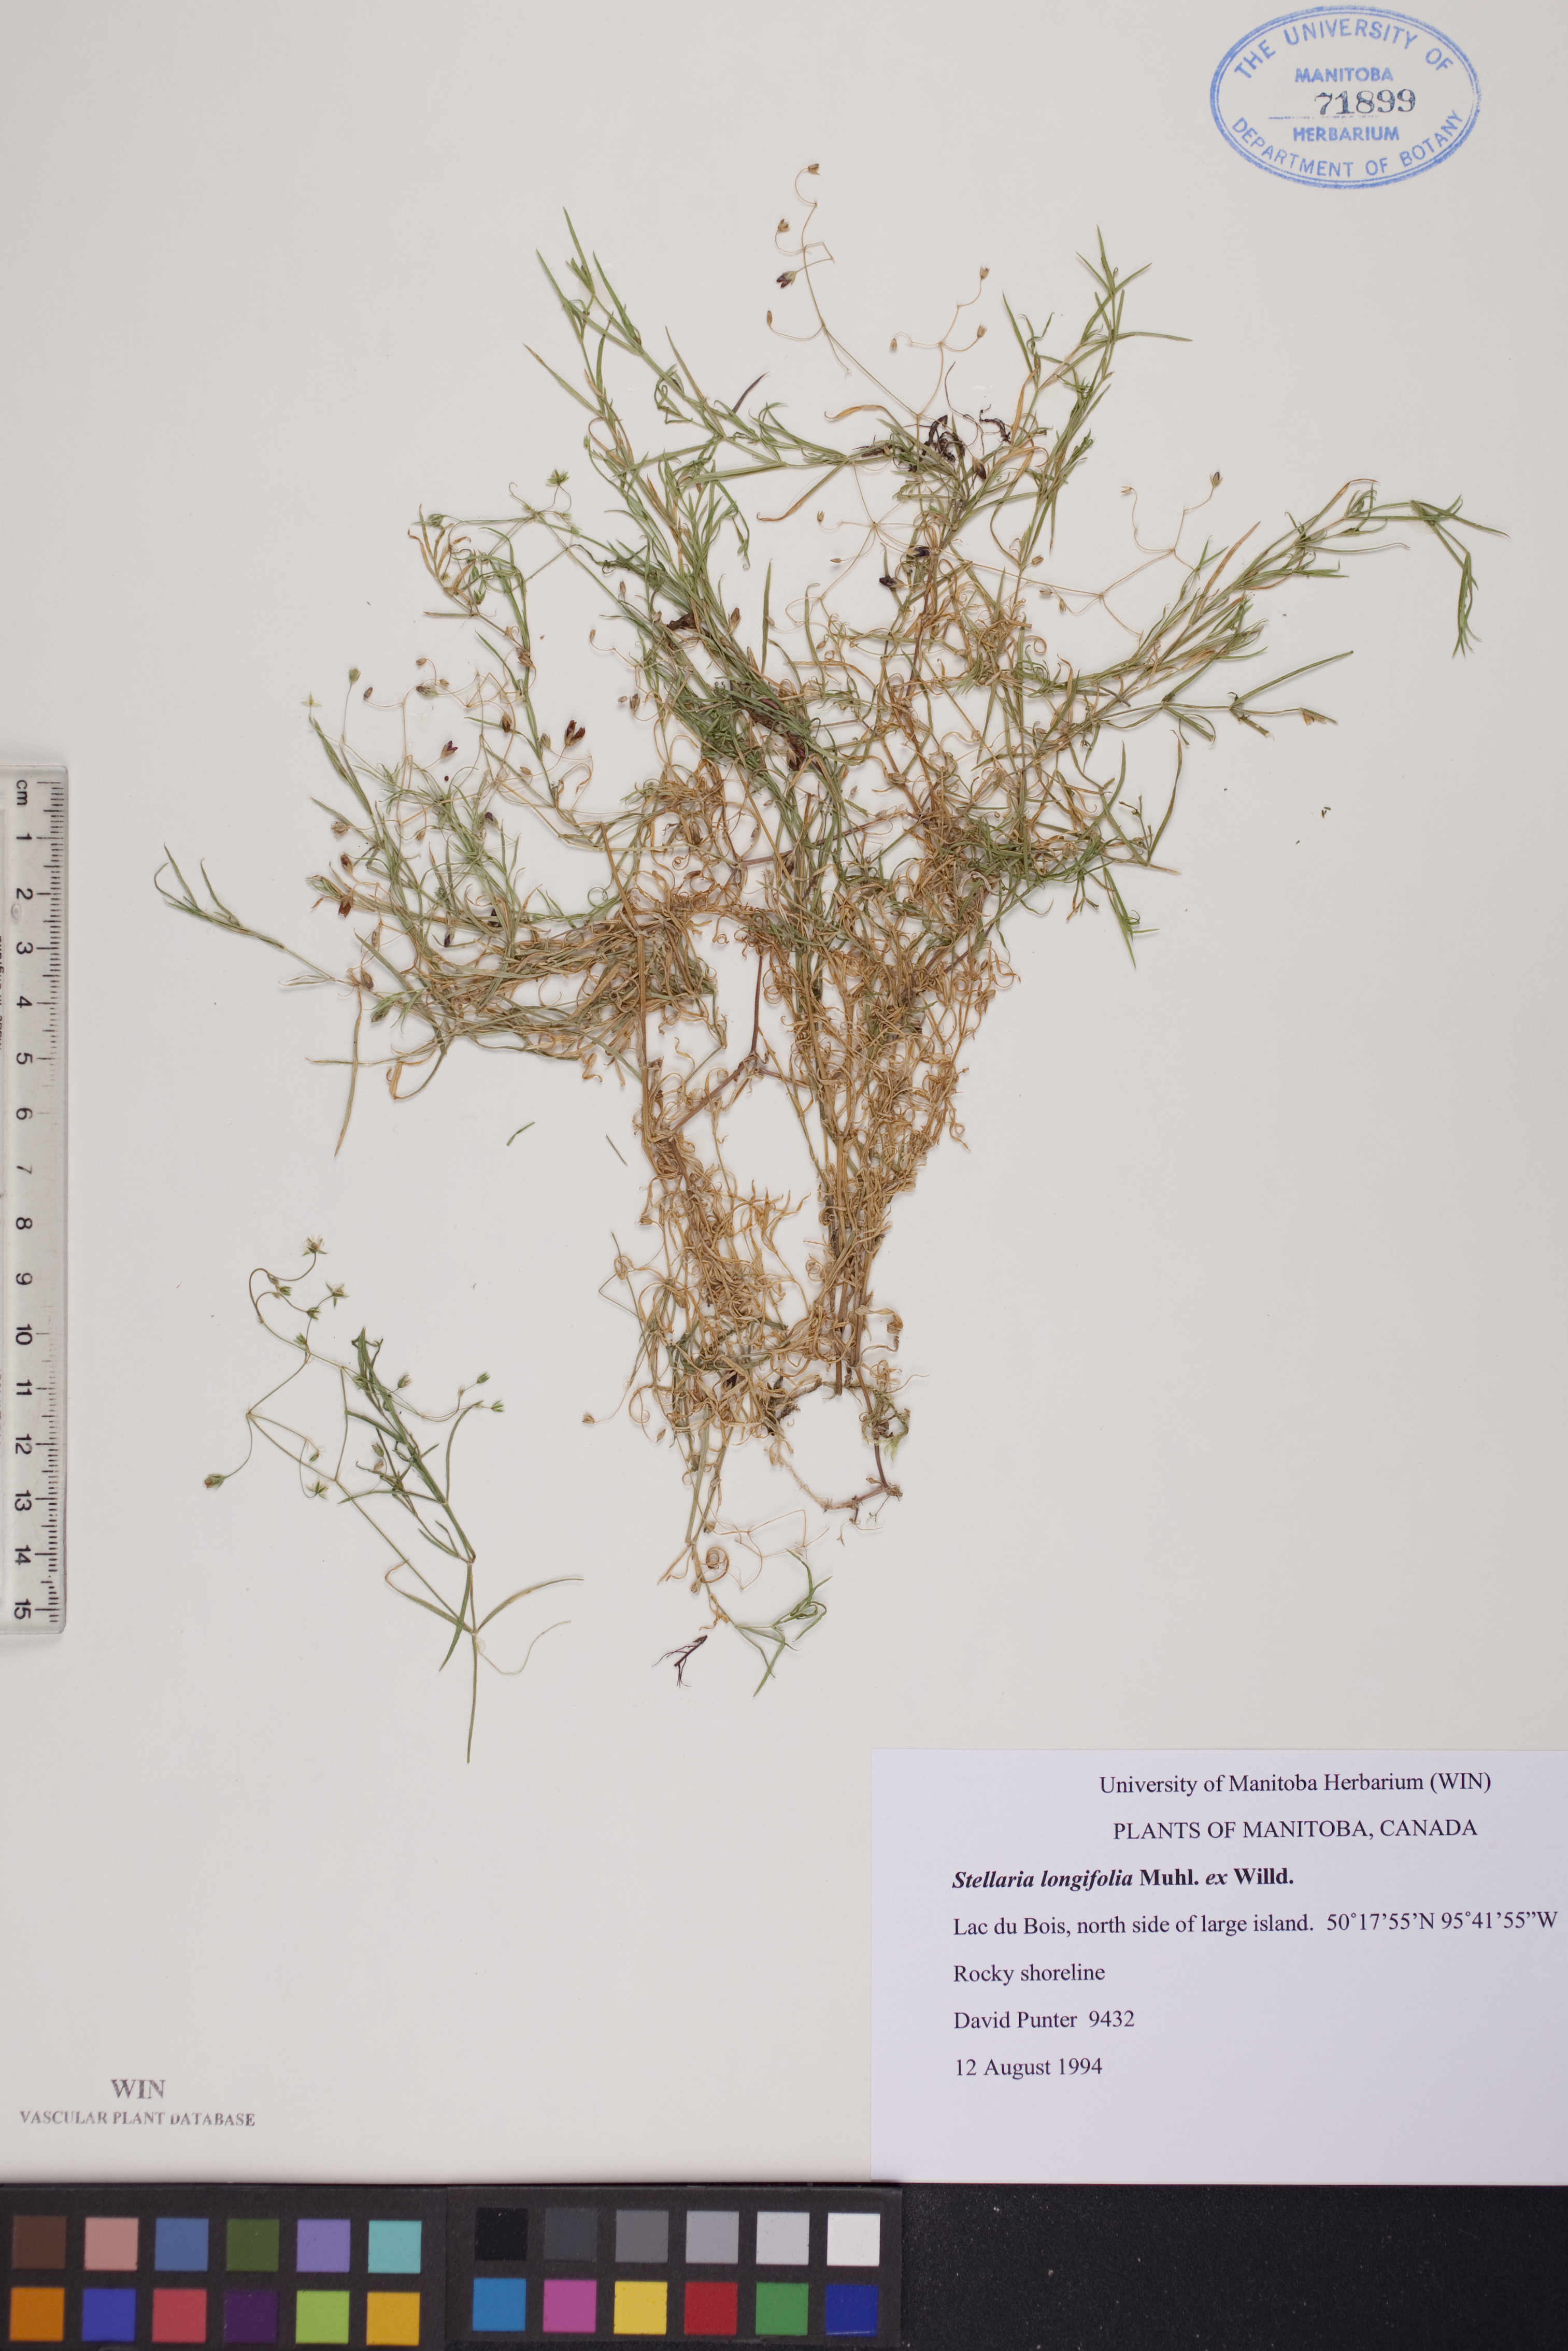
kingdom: Plantae
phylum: Tracheophyta
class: Magnoliopsida
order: Caryophyllales
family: Caryophyllaceae
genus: Stellaria
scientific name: Stellaria longifolia
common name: Long-leaved chickweed
